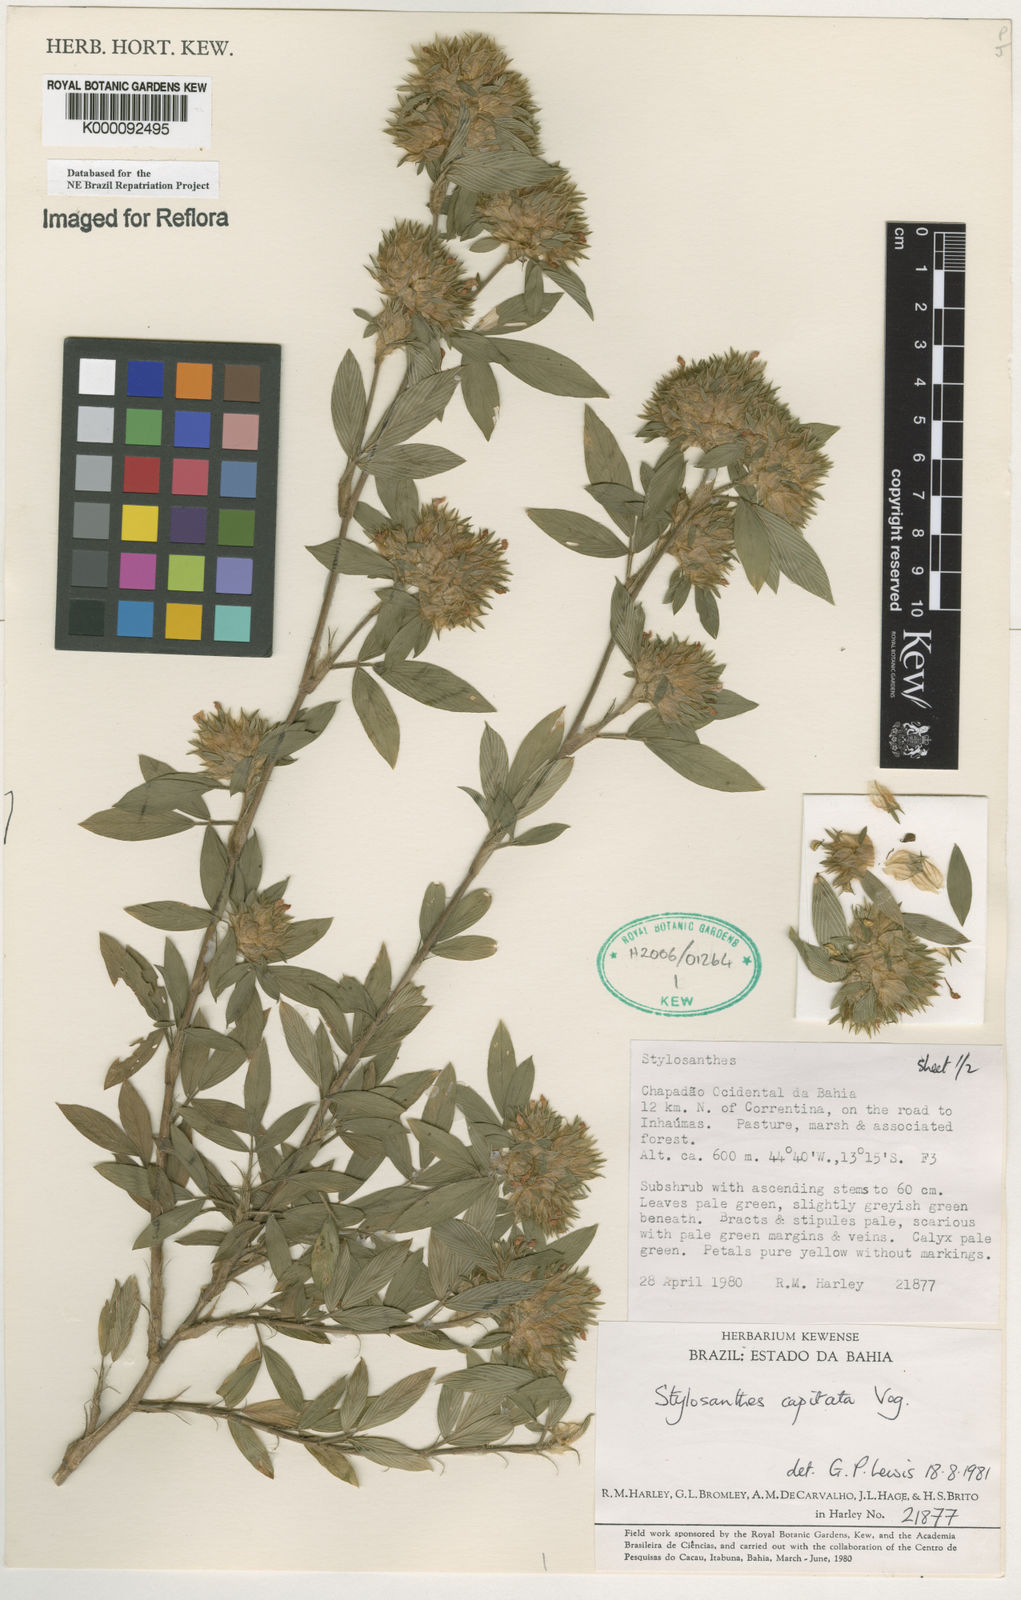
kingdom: Plantae
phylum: Tracheophyta
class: Magnoliopsida
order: Fabales
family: Fabaceae
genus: Stylosanthes
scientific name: Stylosanthes capitata
